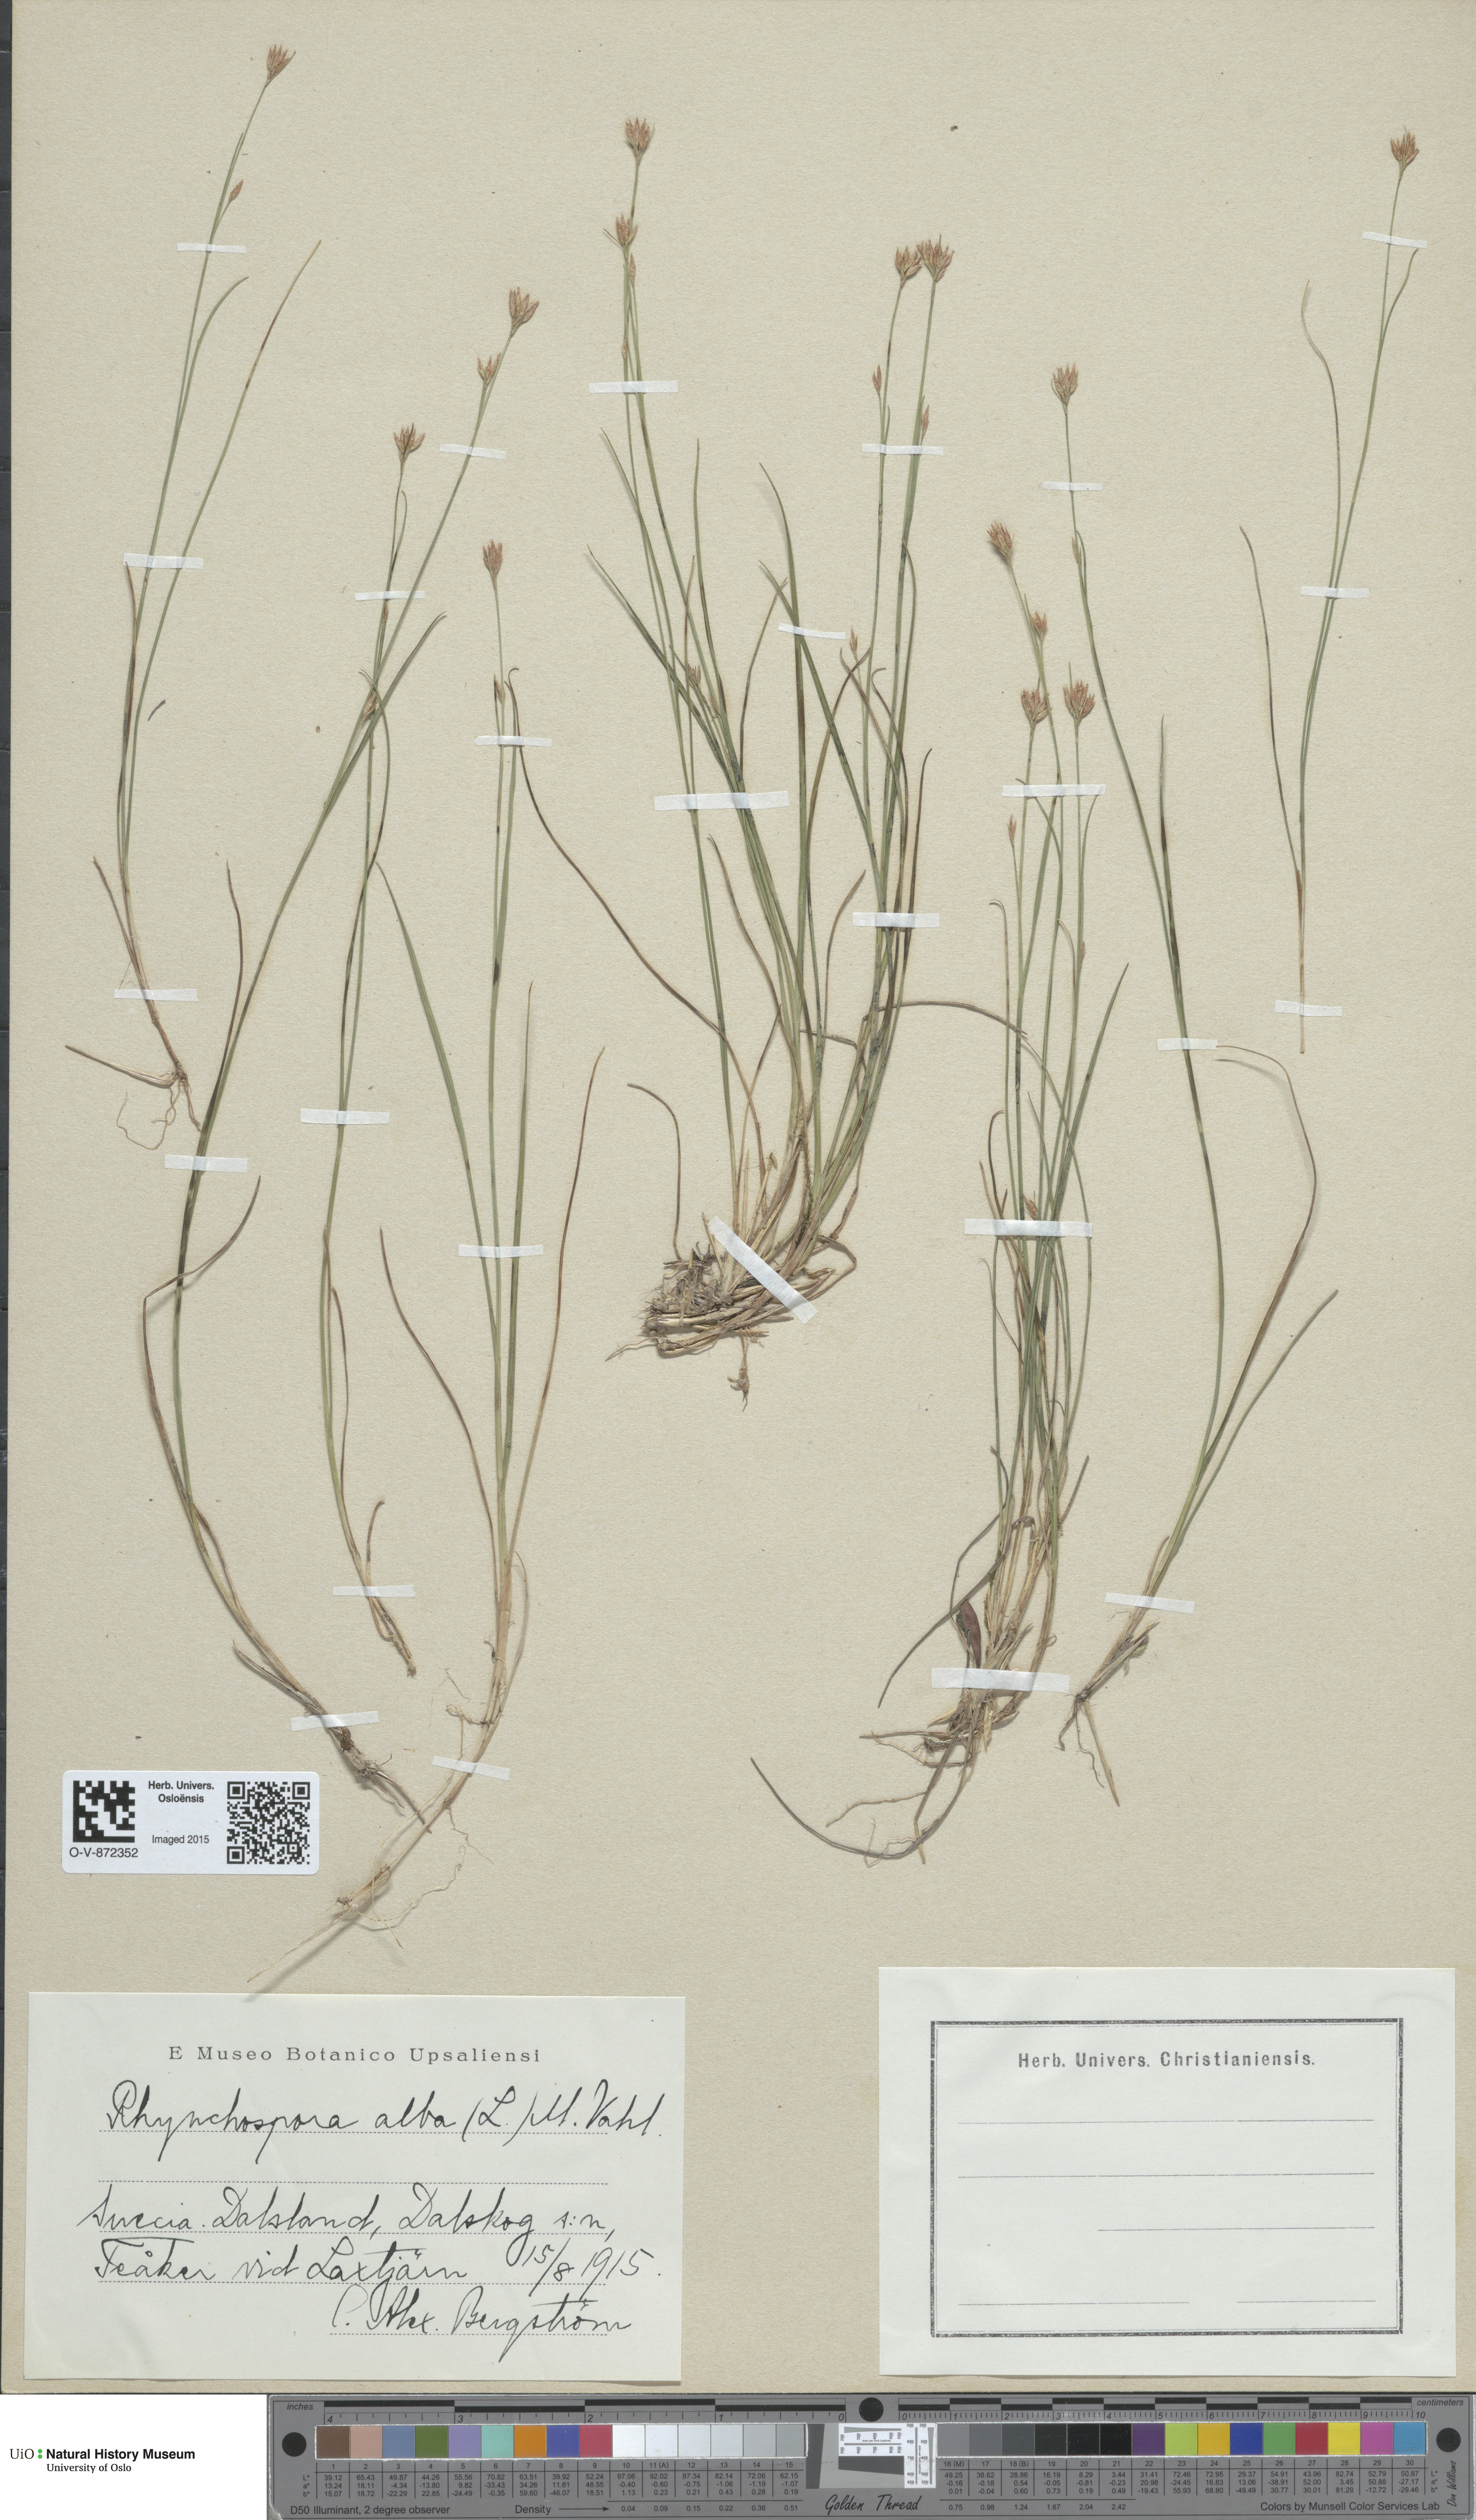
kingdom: Plantae
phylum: Tracheophyta
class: Liliopsida
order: Poales
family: Cyperaceae
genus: Rhynchospora
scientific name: Rhynchospora alba
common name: White beak-sedge
